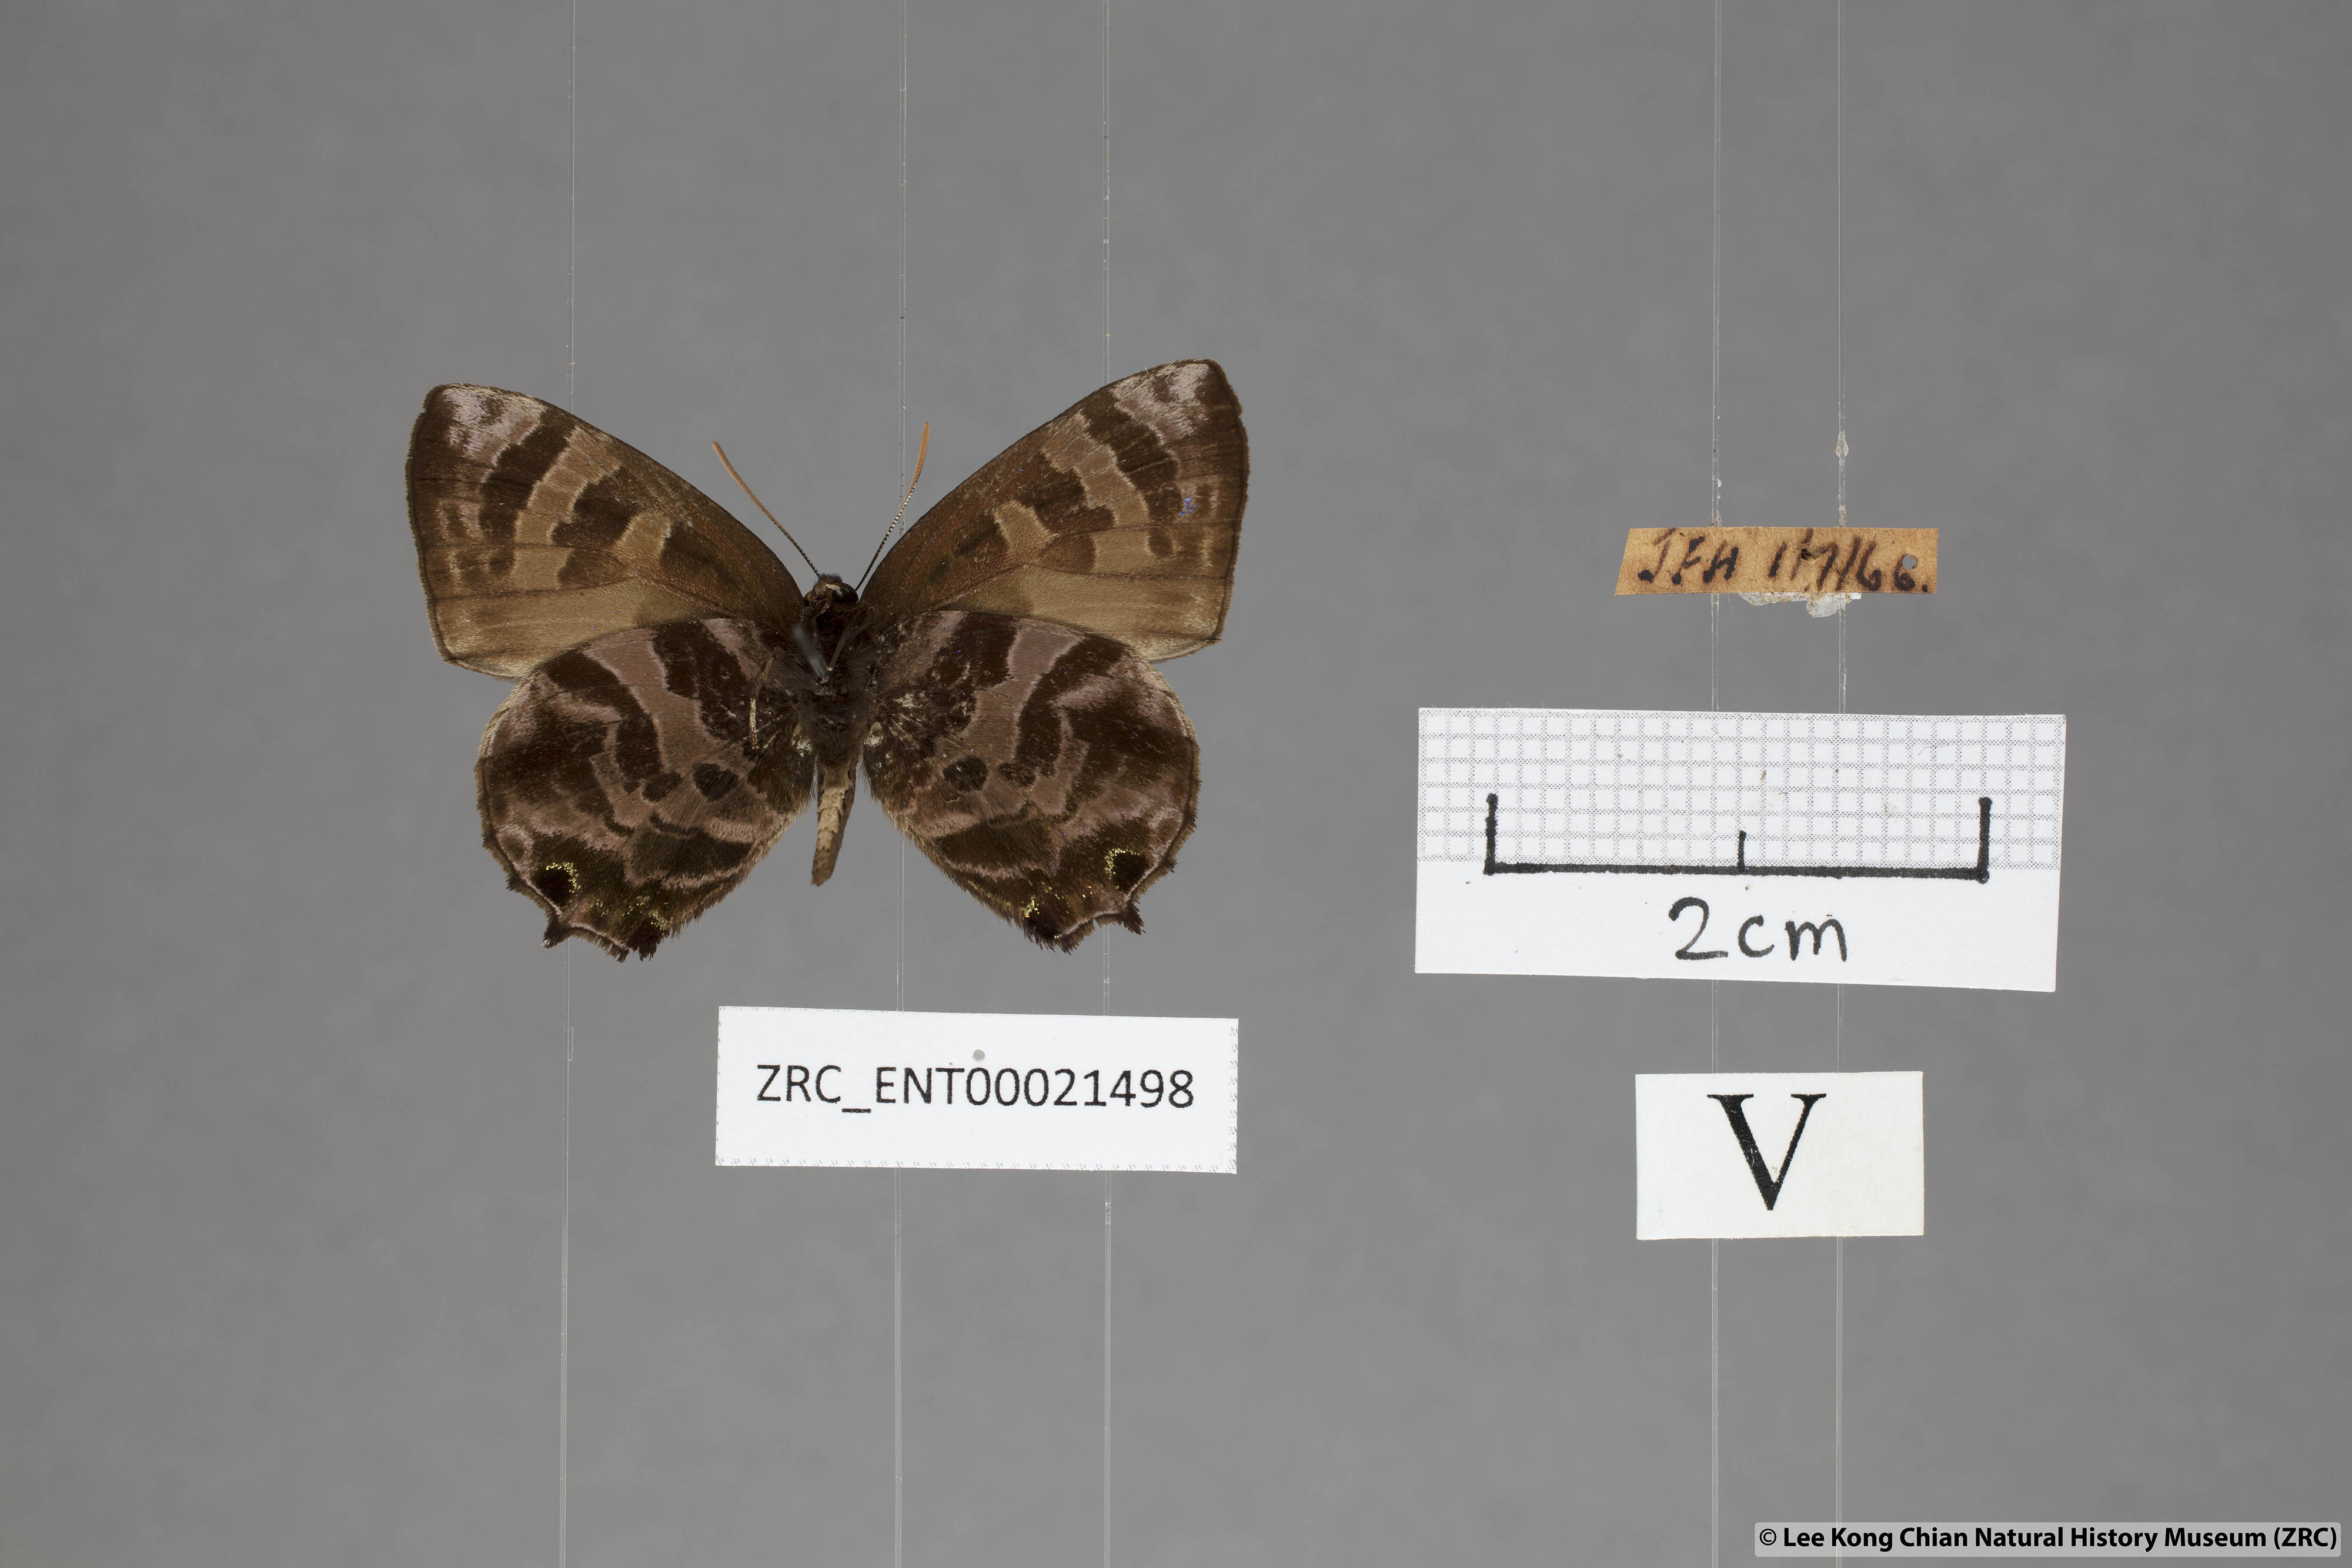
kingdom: Animalia
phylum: Arthropoda
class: Insecta
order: Lepidoptera
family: Lycaenidae
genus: Flos
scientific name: Flos
